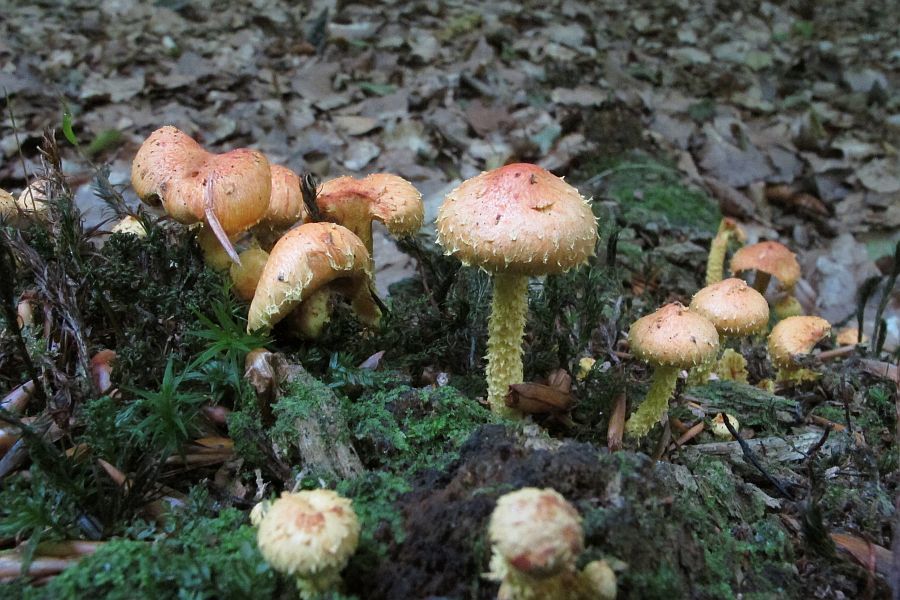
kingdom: Fungi
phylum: Basidiomycota
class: Agaricomycetes
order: Agaricales
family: Strophariaceae
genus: Pholiota
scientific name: Pholiota flammans
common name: flamme-skælhat
